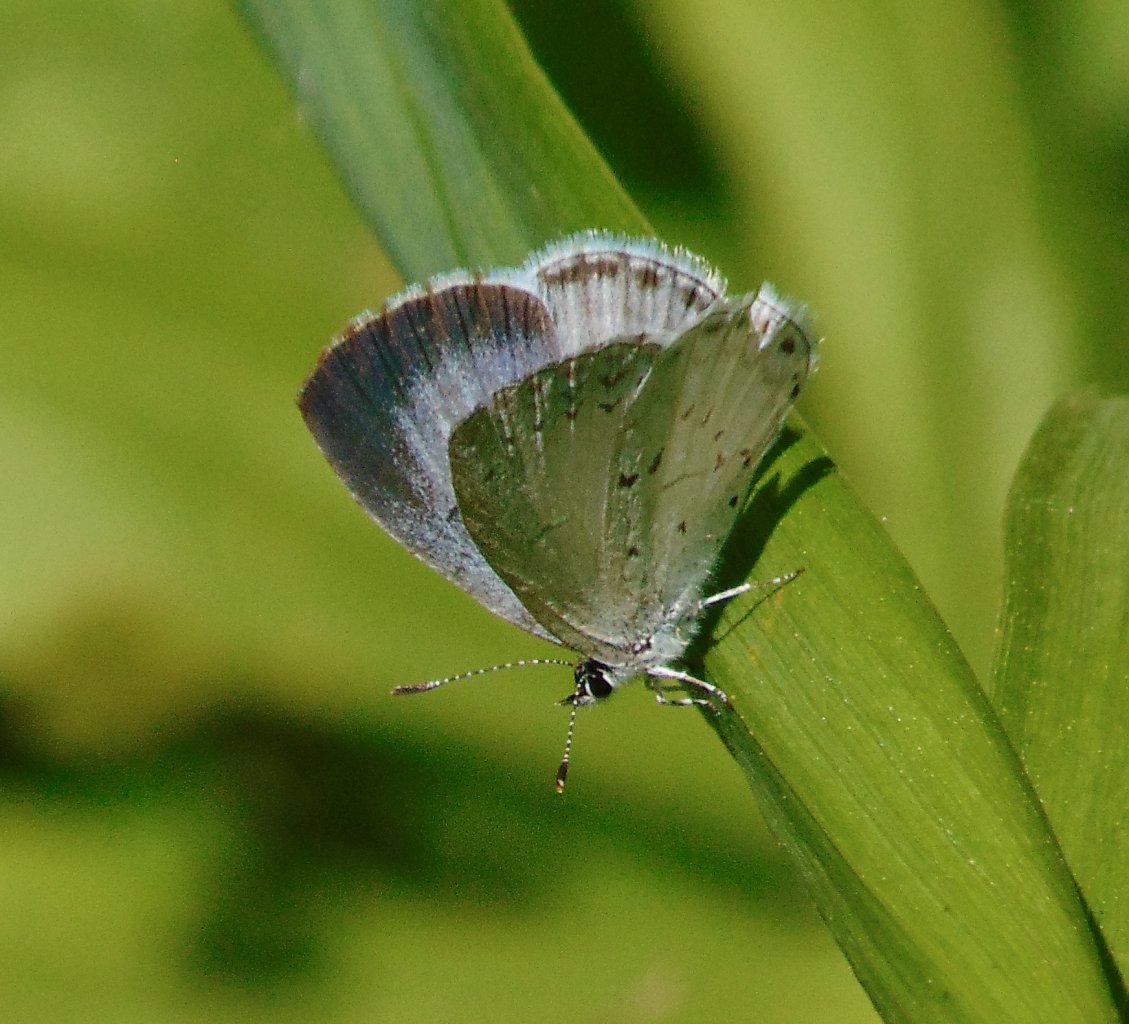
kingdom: Animalia
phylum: Arthropoda
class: Insecta
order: Lepidoptera
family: Lycaenidae
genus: Cyaniris
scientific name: Cyaniris neglecta
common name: Summer Azure
